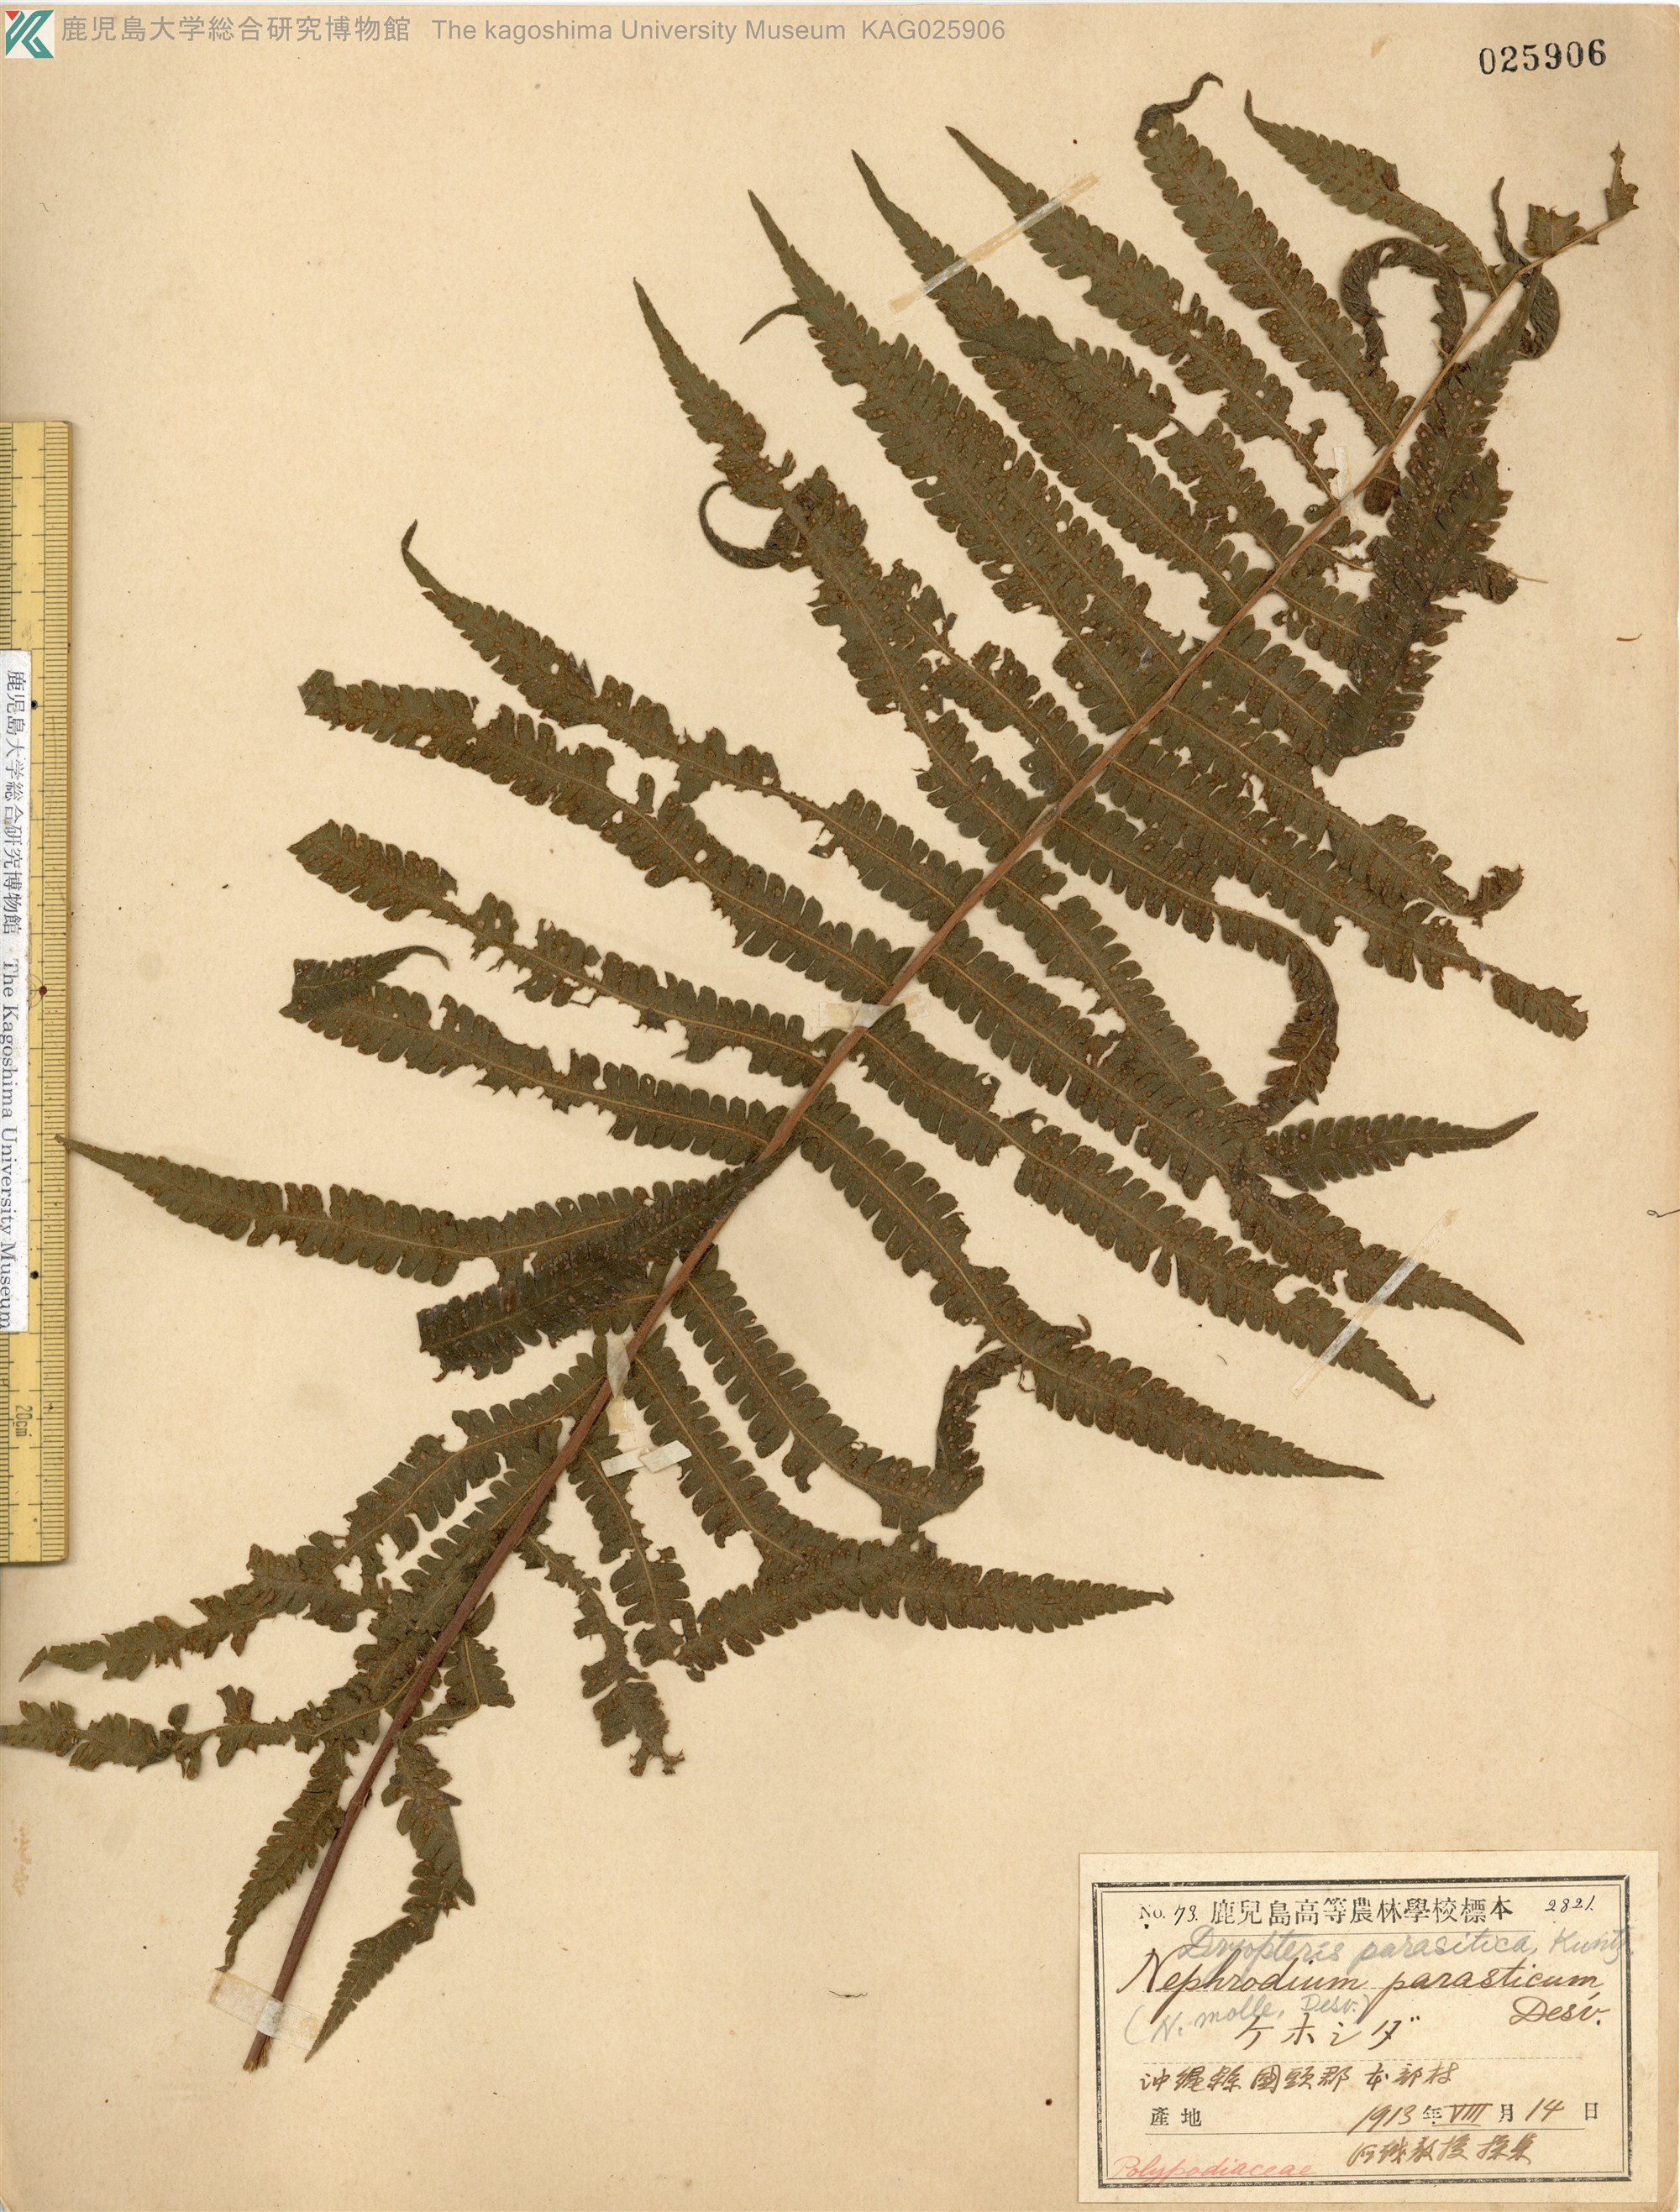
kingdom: Plantae
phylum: Tracheophyta
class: Polypodiopsida
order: Polypodiales
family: Thelypteridaceae
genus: Christella
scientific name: Christella parasitica
